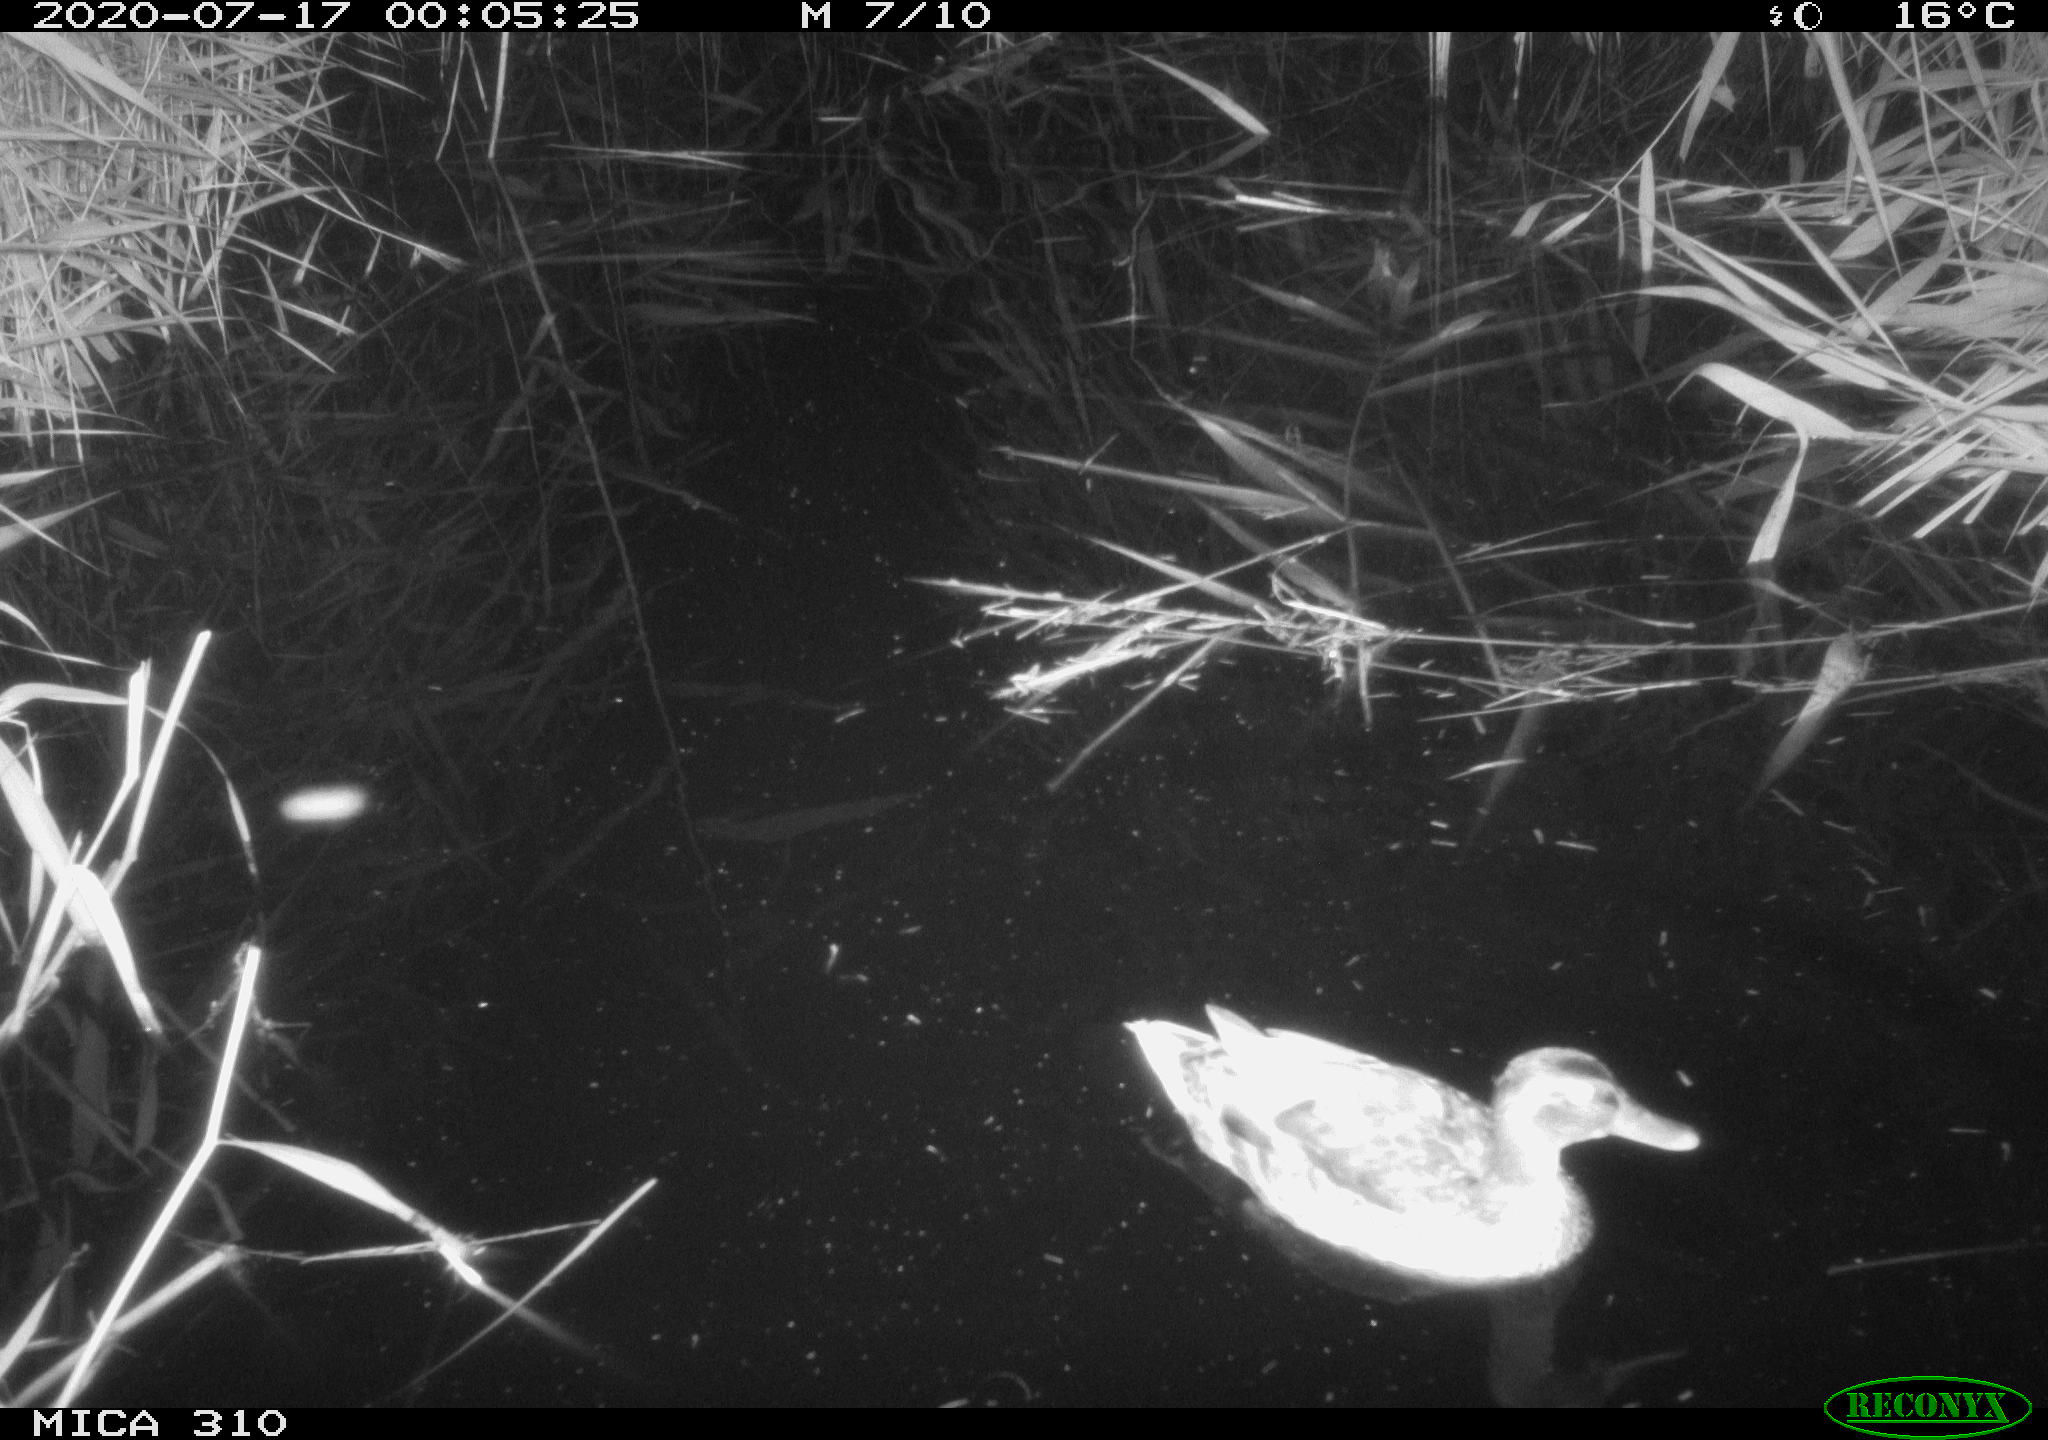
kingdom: Animalia
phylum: Chordata
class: Aves
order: Anseriformes
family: Anatidae
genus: Anas
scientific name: Anas platyrhynchos
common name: Mallard
